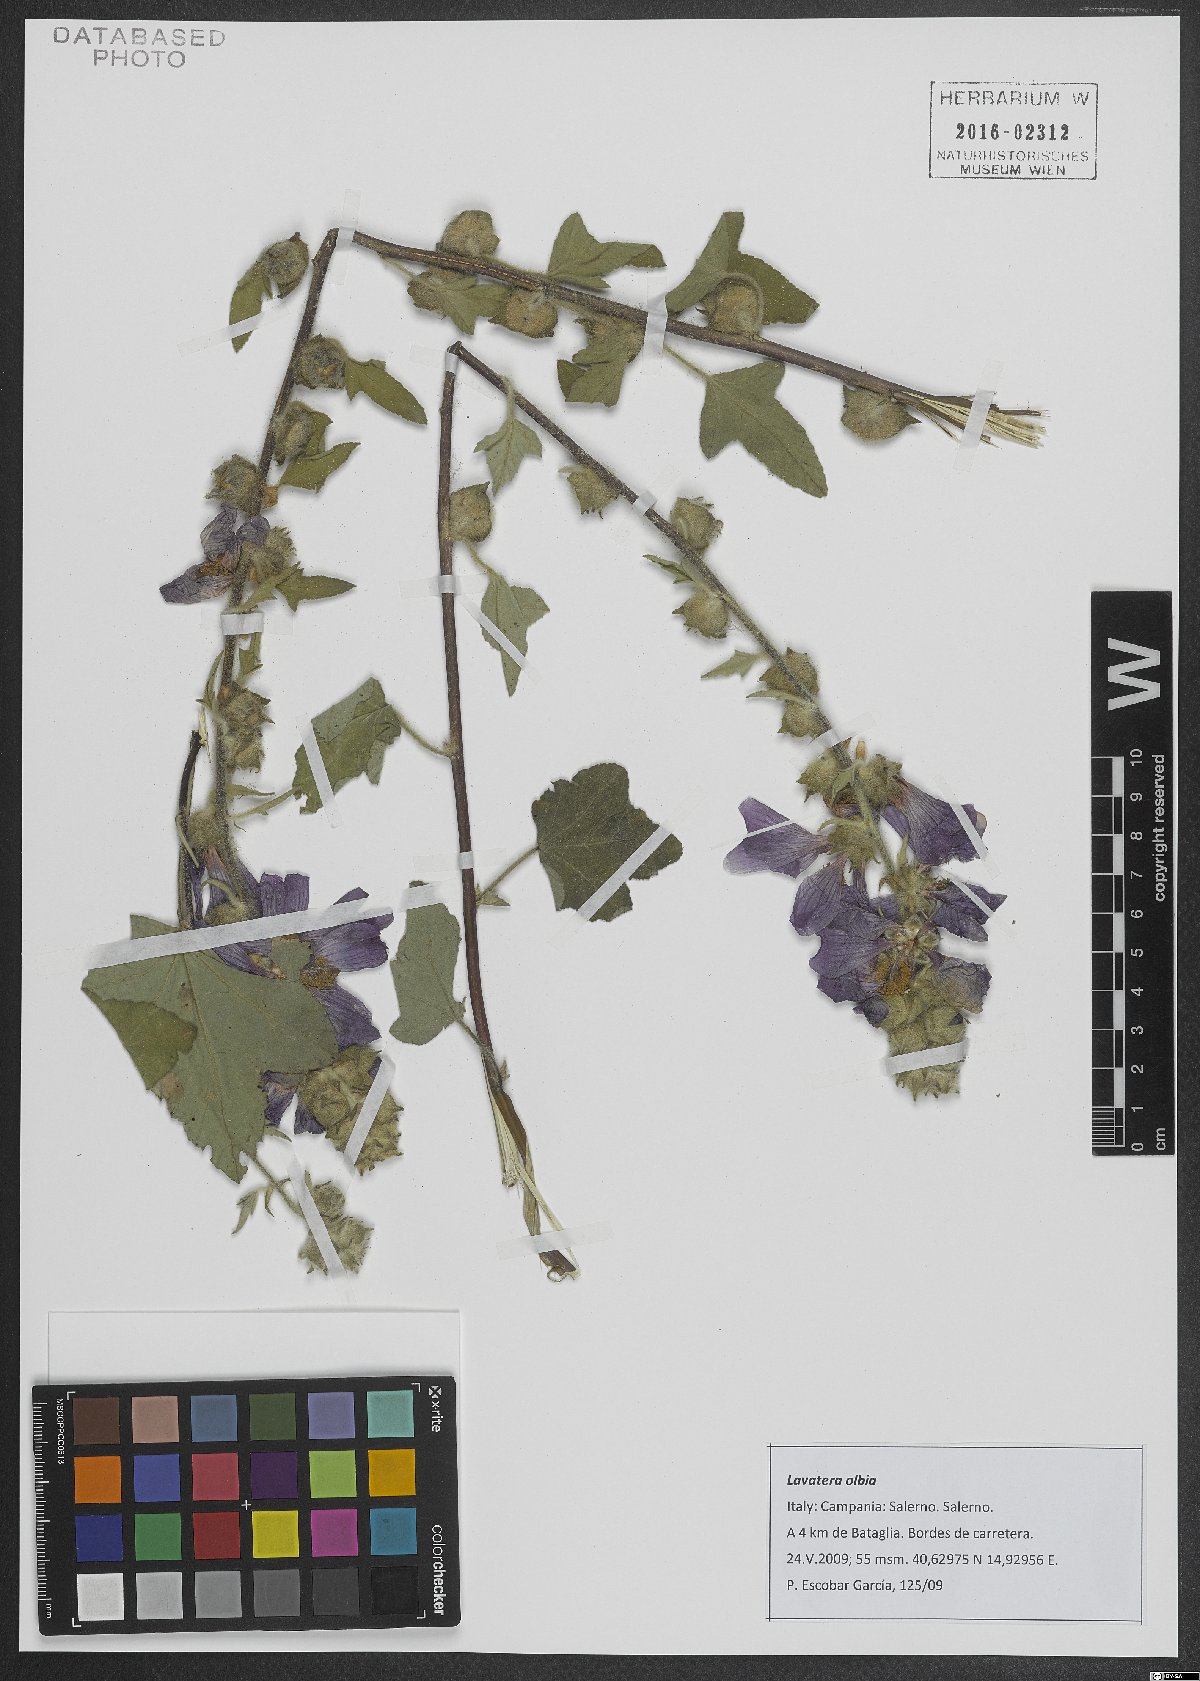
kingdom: Plantae
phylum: Tracheophyta
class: Magnoliopsida
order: Malvales
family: Malvaceae
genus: Malva
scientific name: Malva olbia
